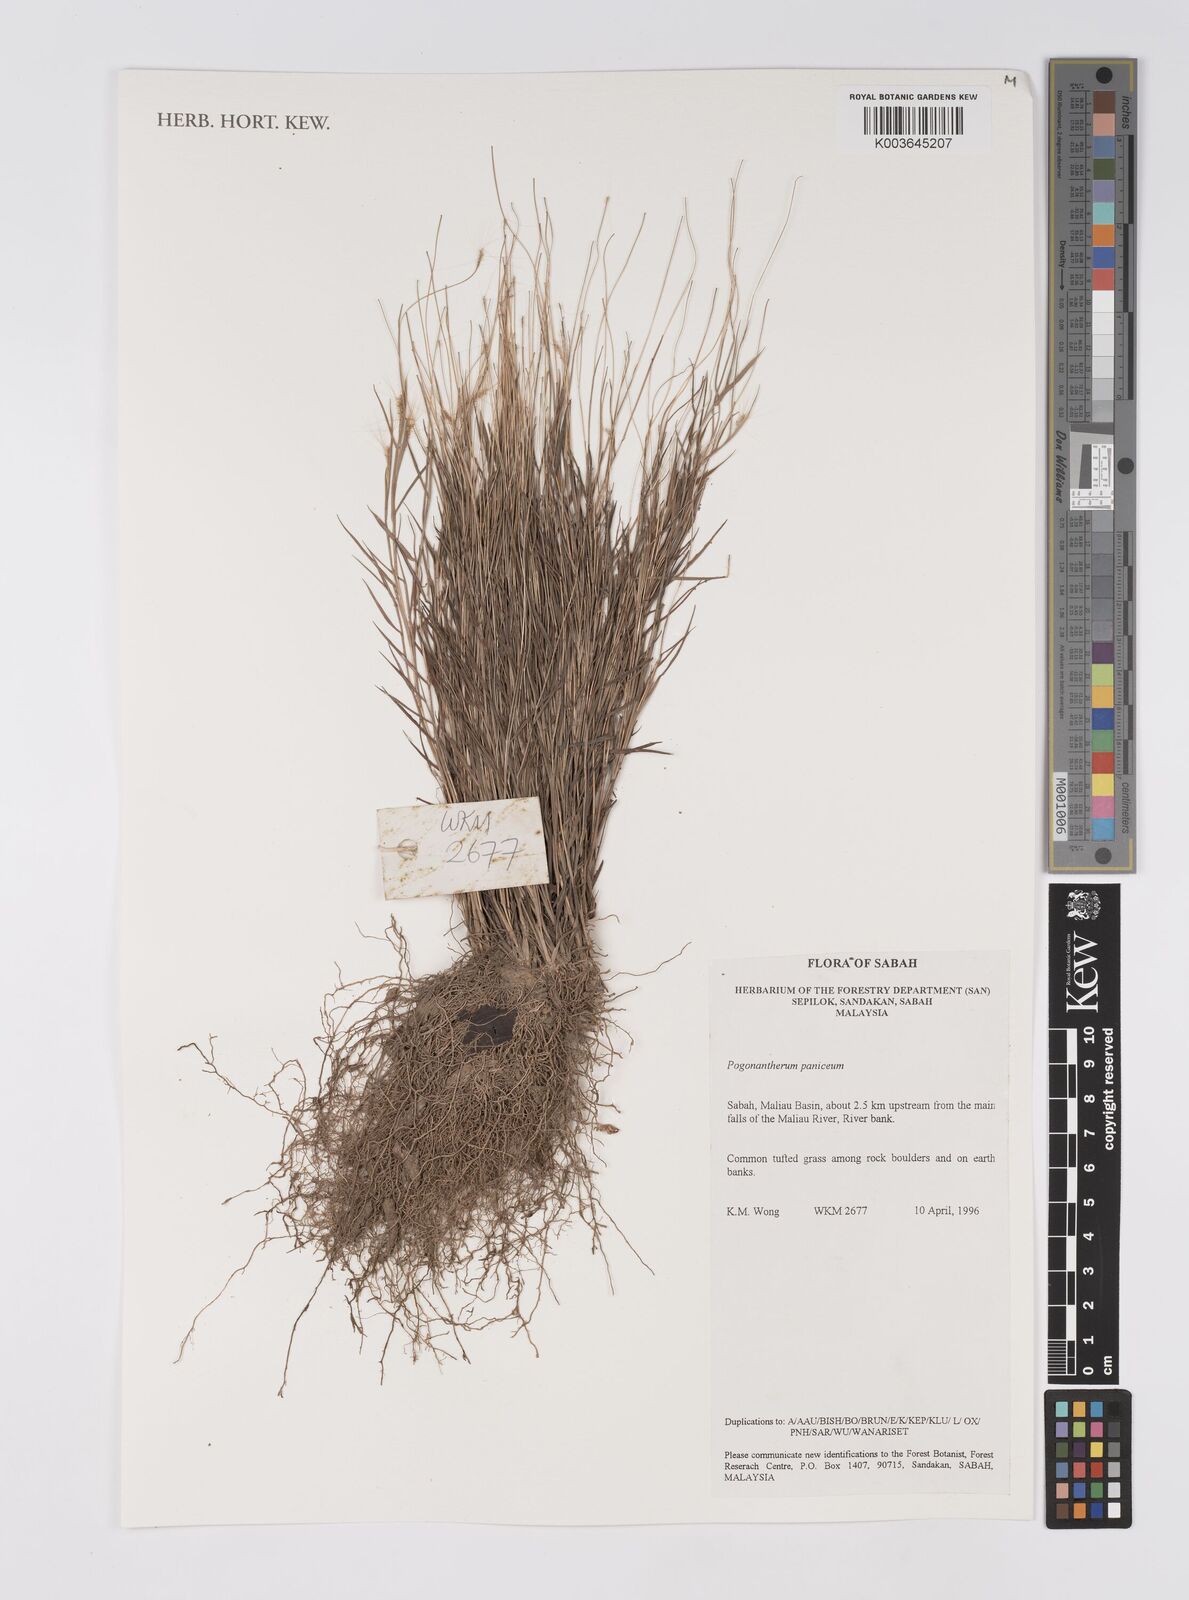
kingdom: Plantae
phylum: Tracheophyta
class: Liliopsida
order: Poales
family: Poaceae
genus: Pogonatherum
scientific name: Pogonatherum paniceum
